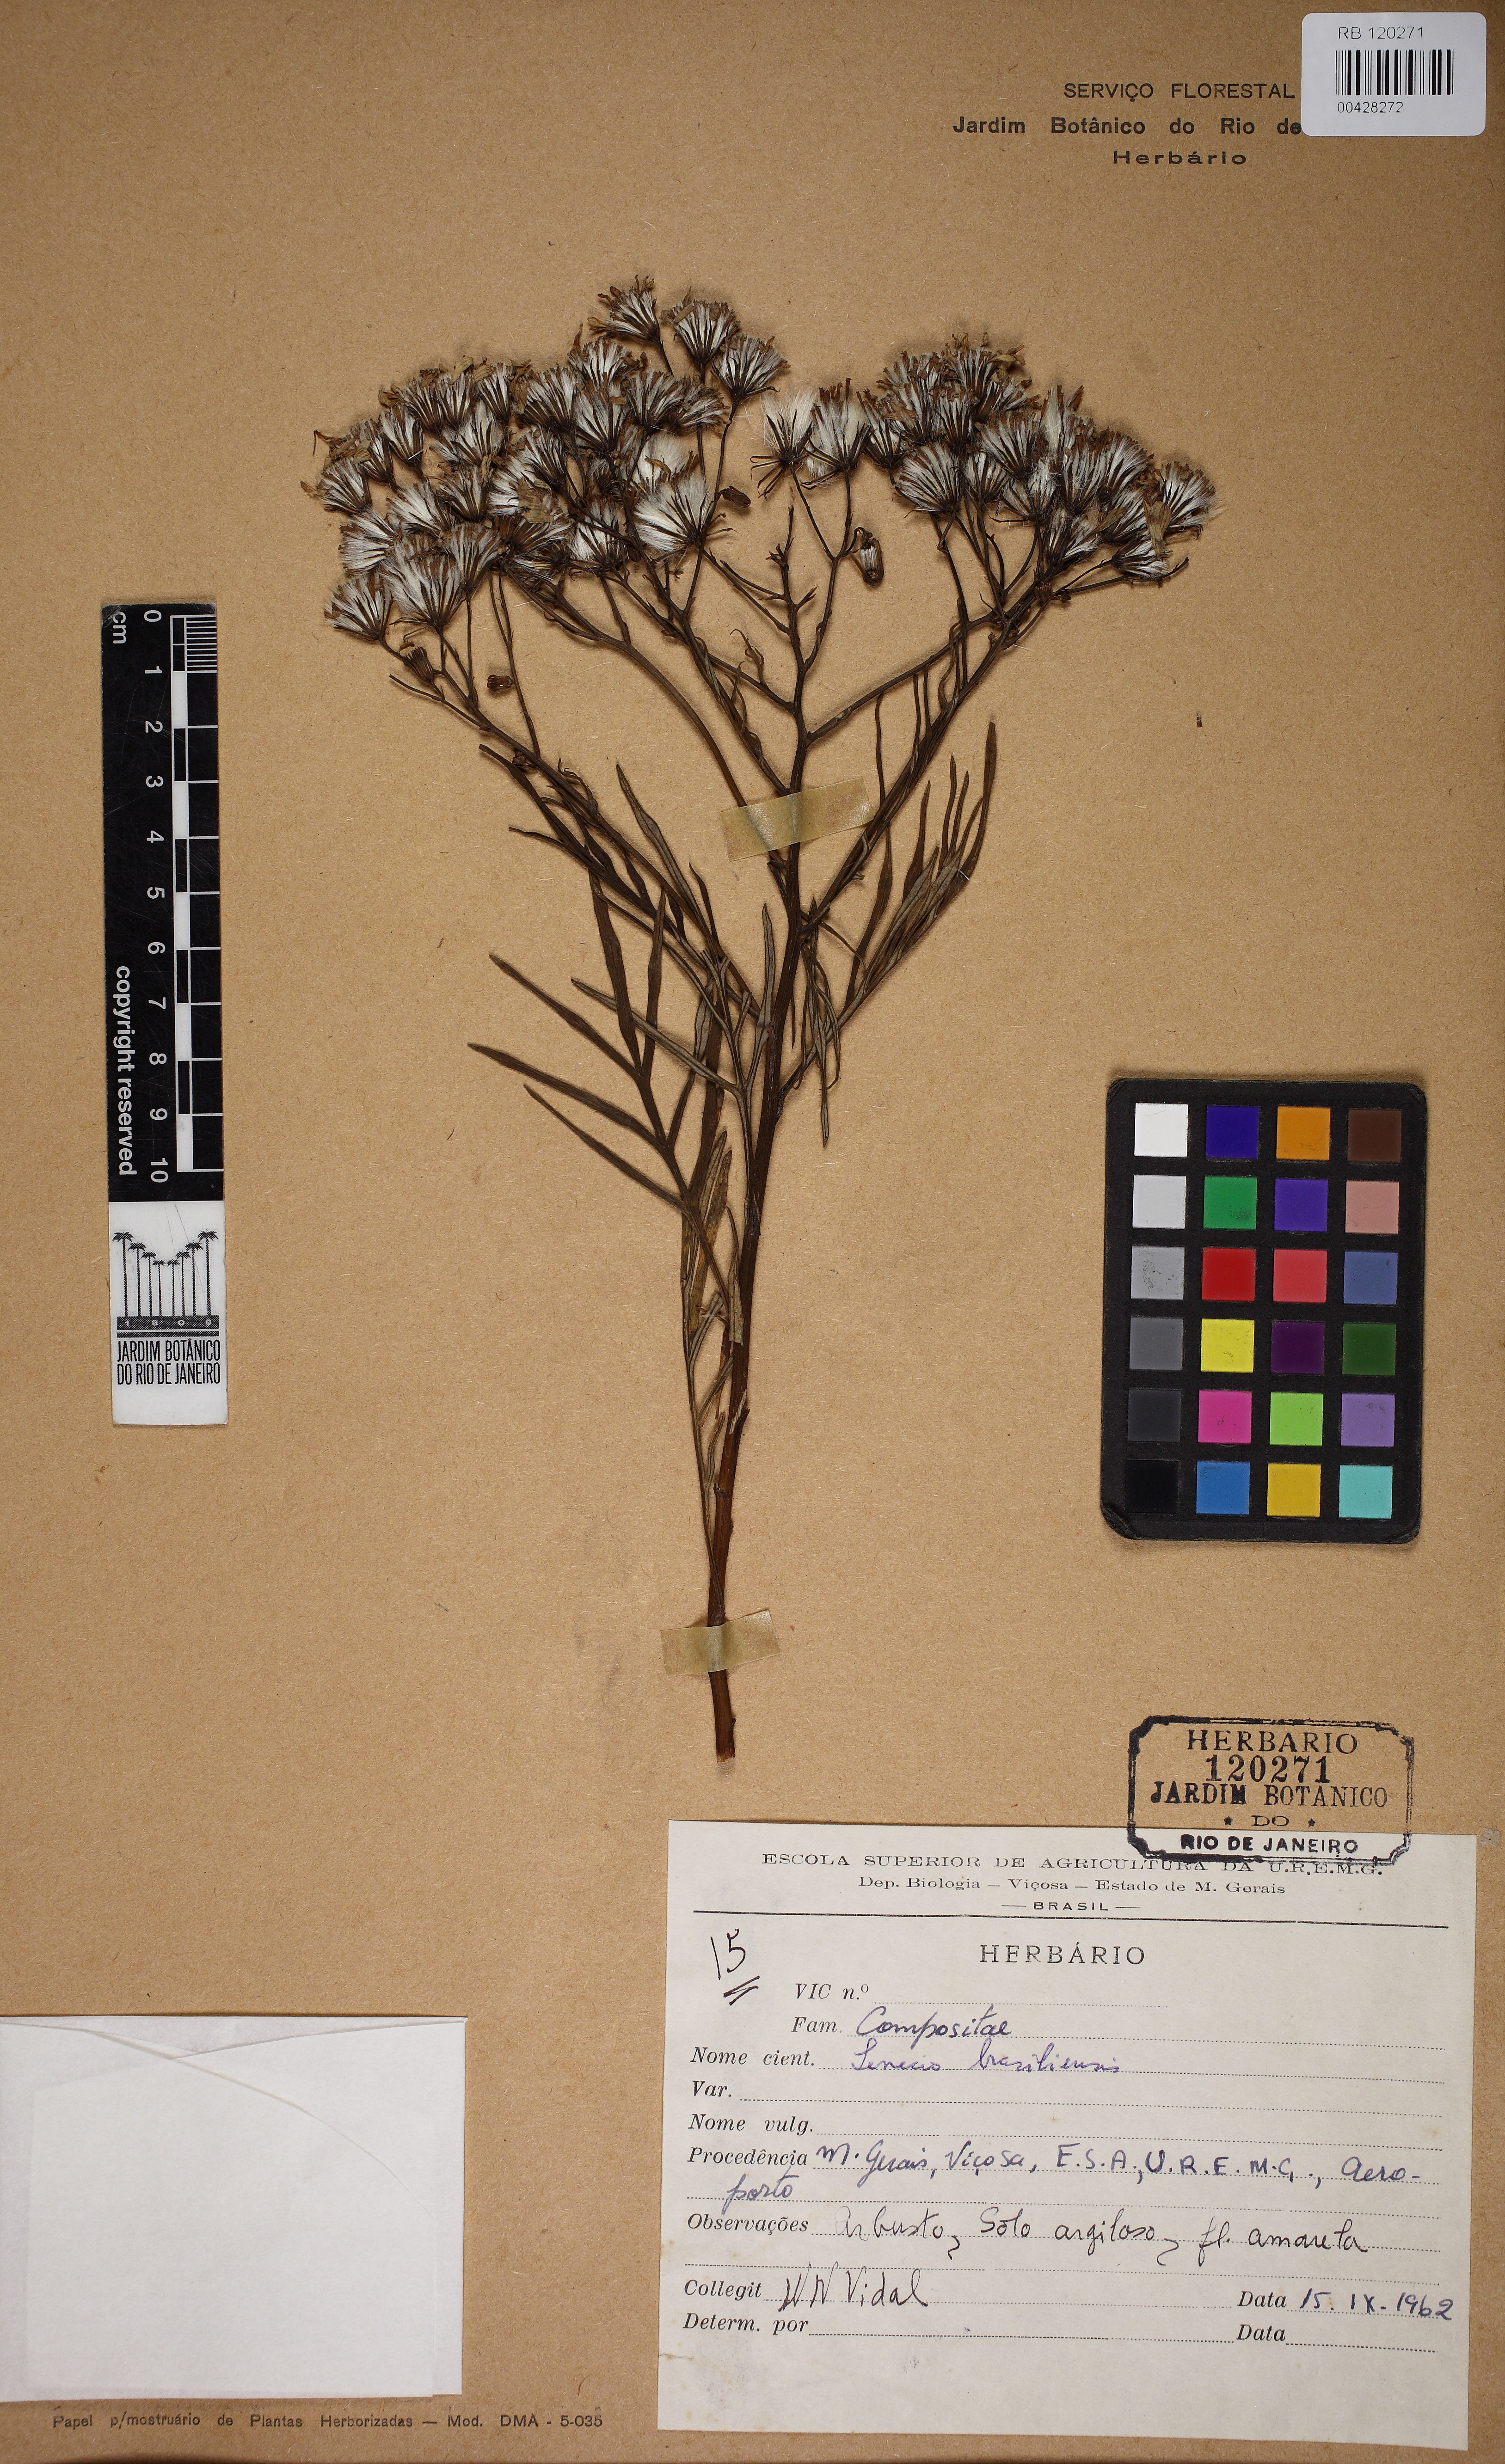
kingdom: Plantae
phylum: Tracheophyta
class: Magnoliopsida
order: Asterales
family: Asteraceae
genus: Senecio
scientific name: Senecio brasiliensis
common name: Hemp-leaf ragwort
